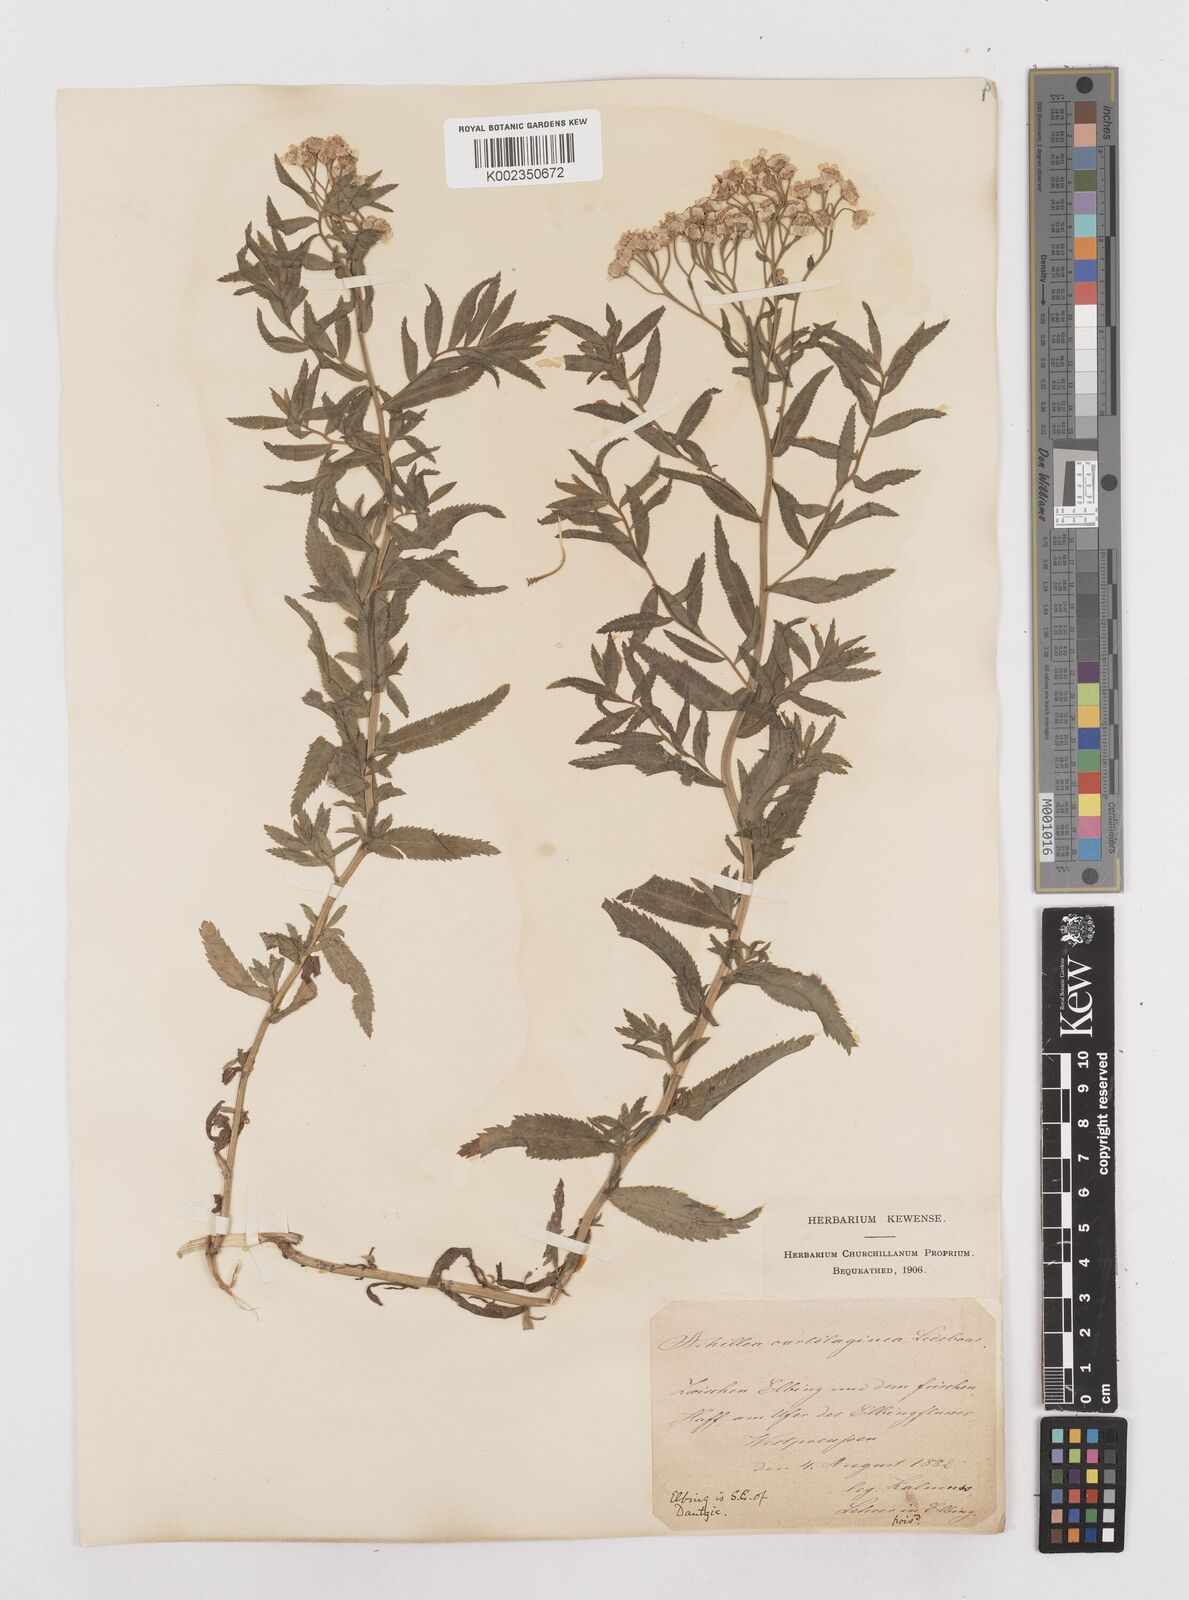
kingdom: Plantae
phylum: Tracheophyta
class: Magnoliopsida
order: Asterales
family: Asteraceae
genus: Achillea
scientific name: Achillea salicifolia
